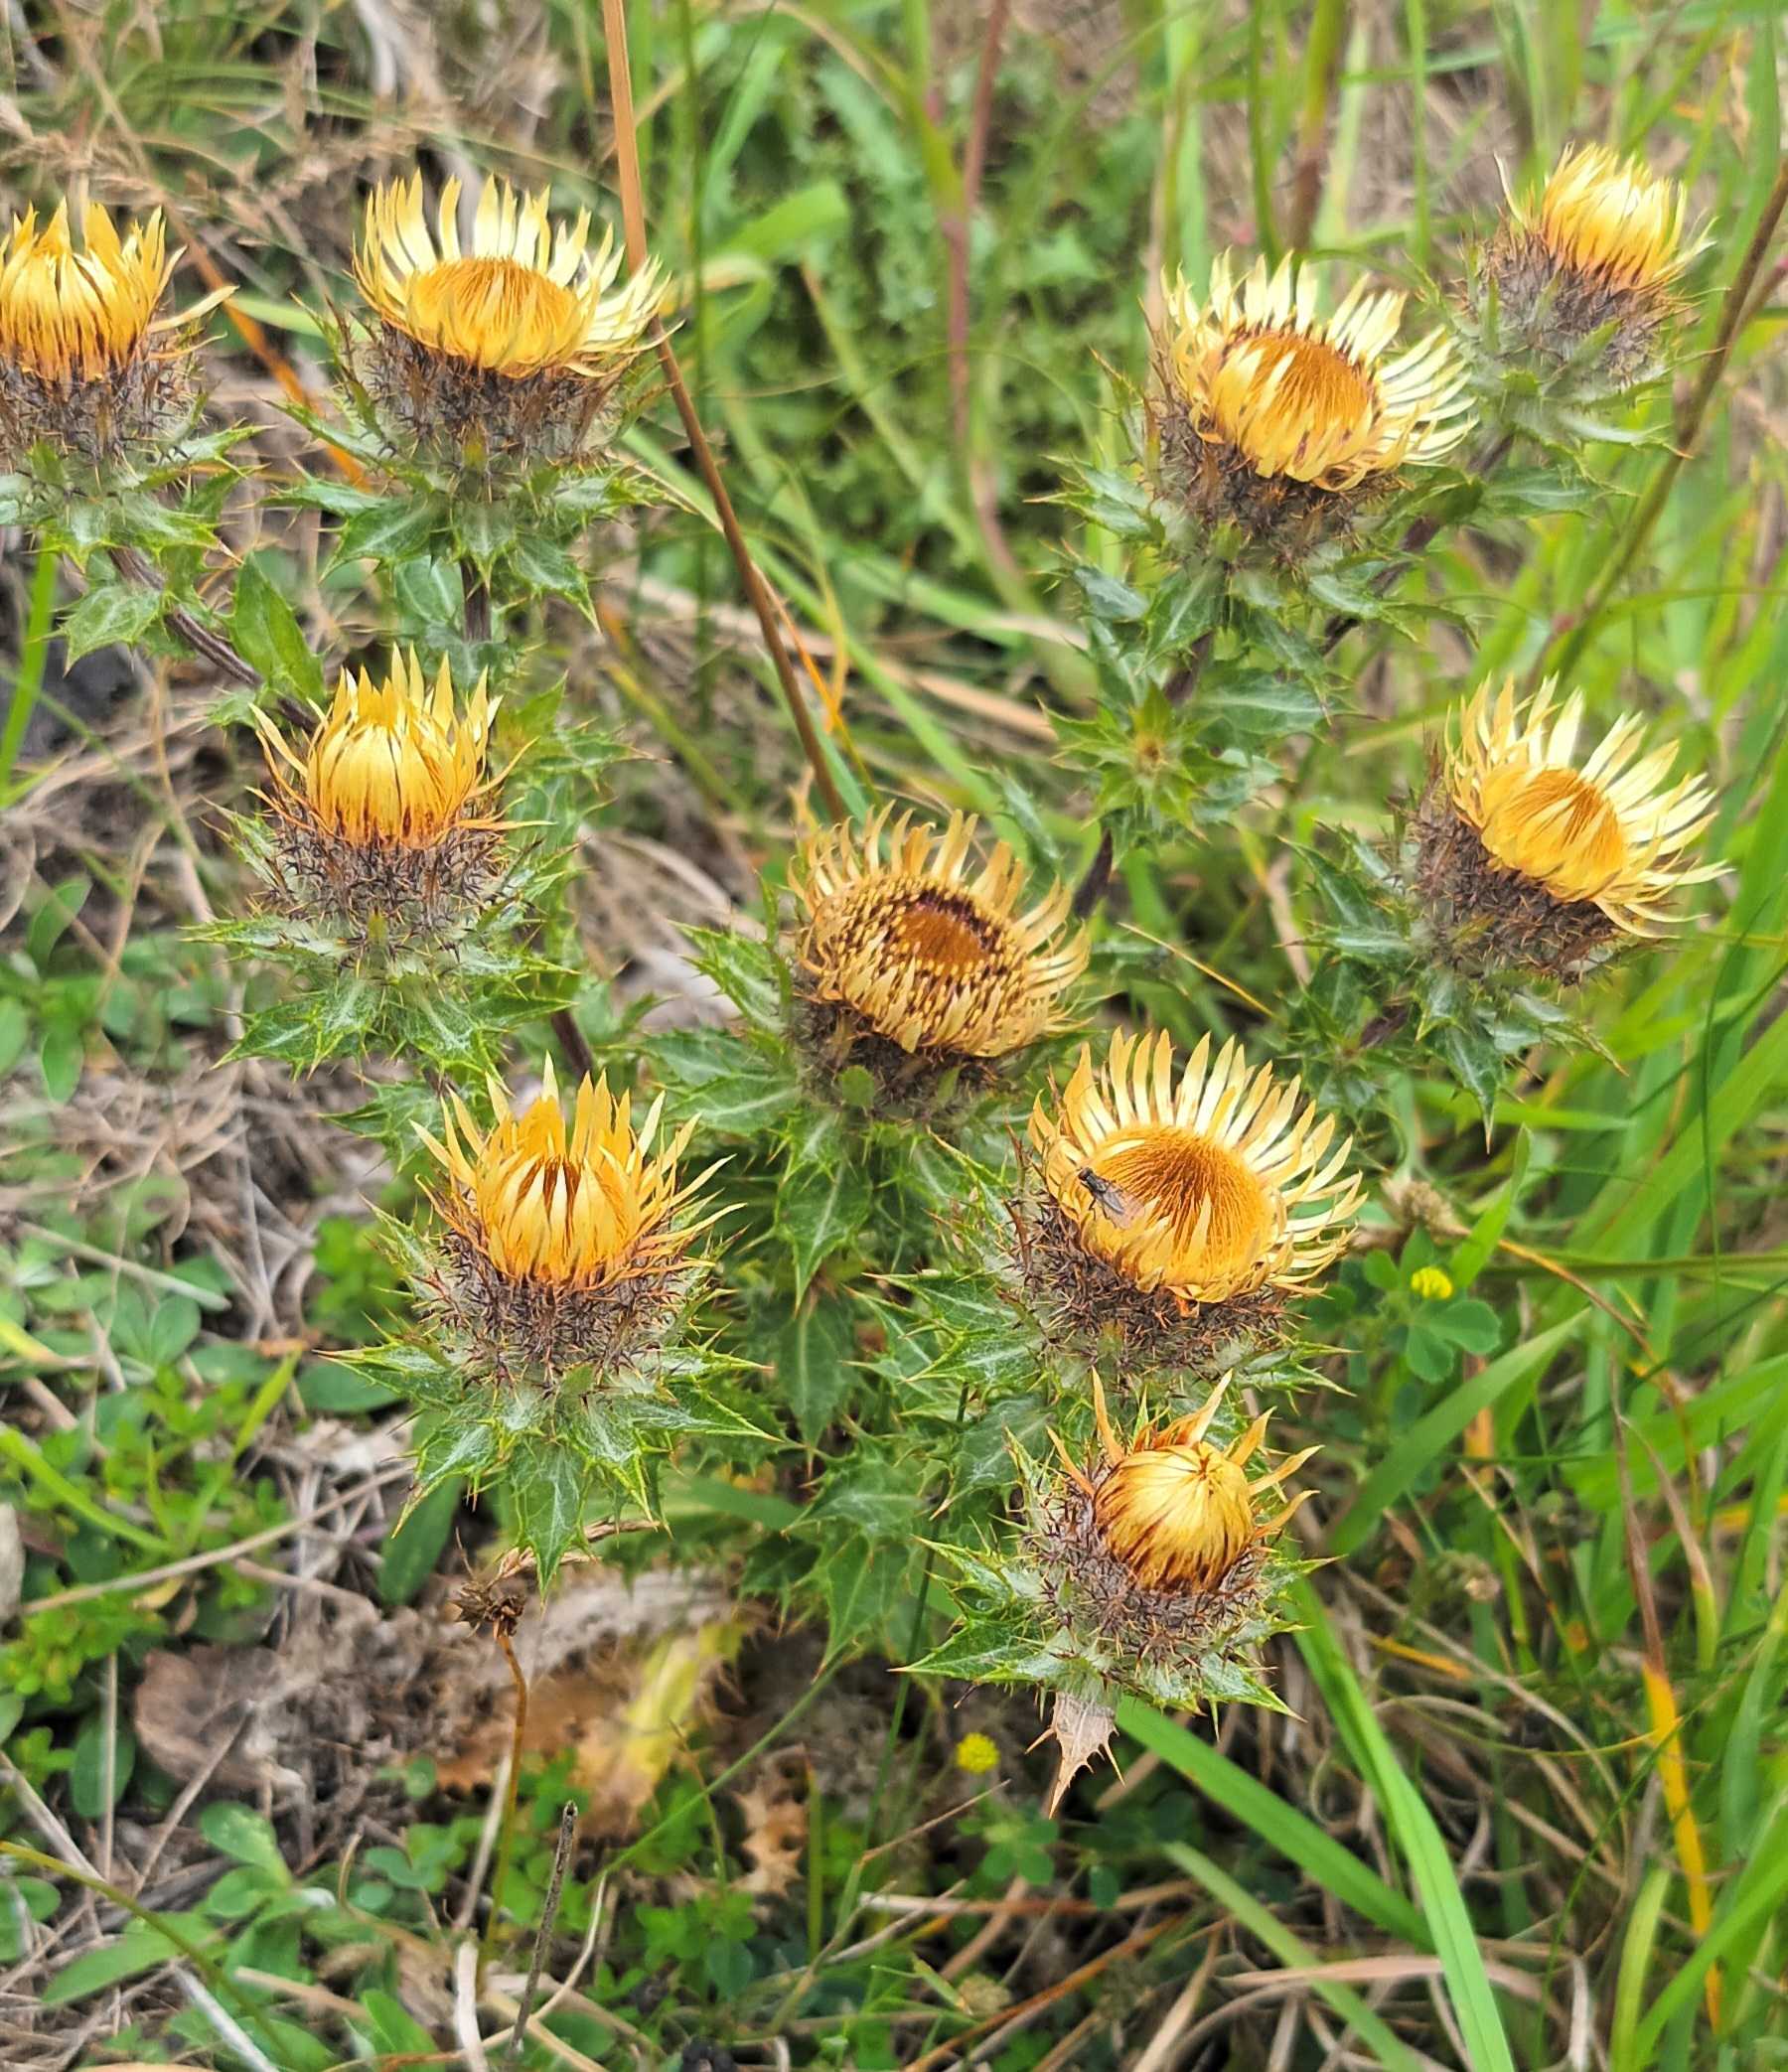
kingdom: Plantae
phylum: Tracheophyta
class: Magnoliopsida
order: Asterales
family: Asteraceae
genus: Carlina
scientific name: Carlina vulgaris
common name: Bakketidsel
